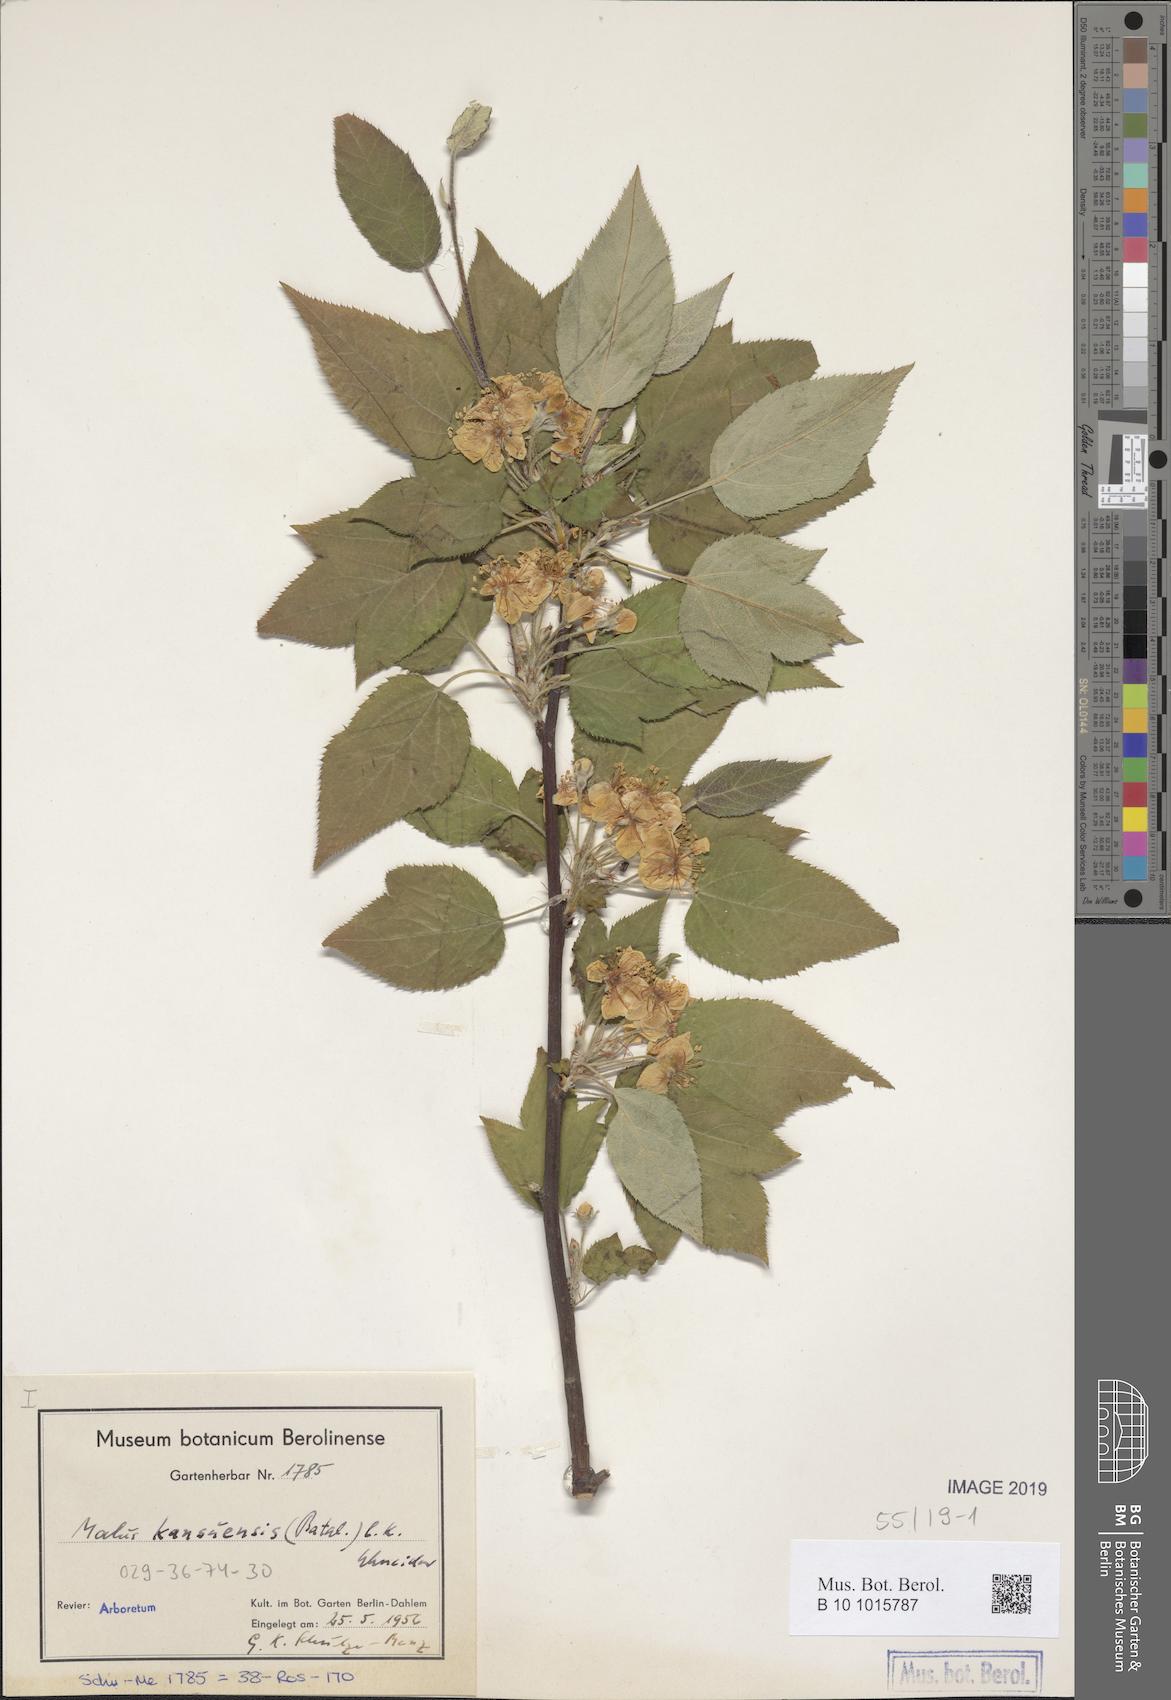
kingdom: Plantae
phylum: Tracheophyta
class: Magnoliopsida
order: Rosales
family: Rosaceae
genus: Malus
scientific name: Malus kansuensis
